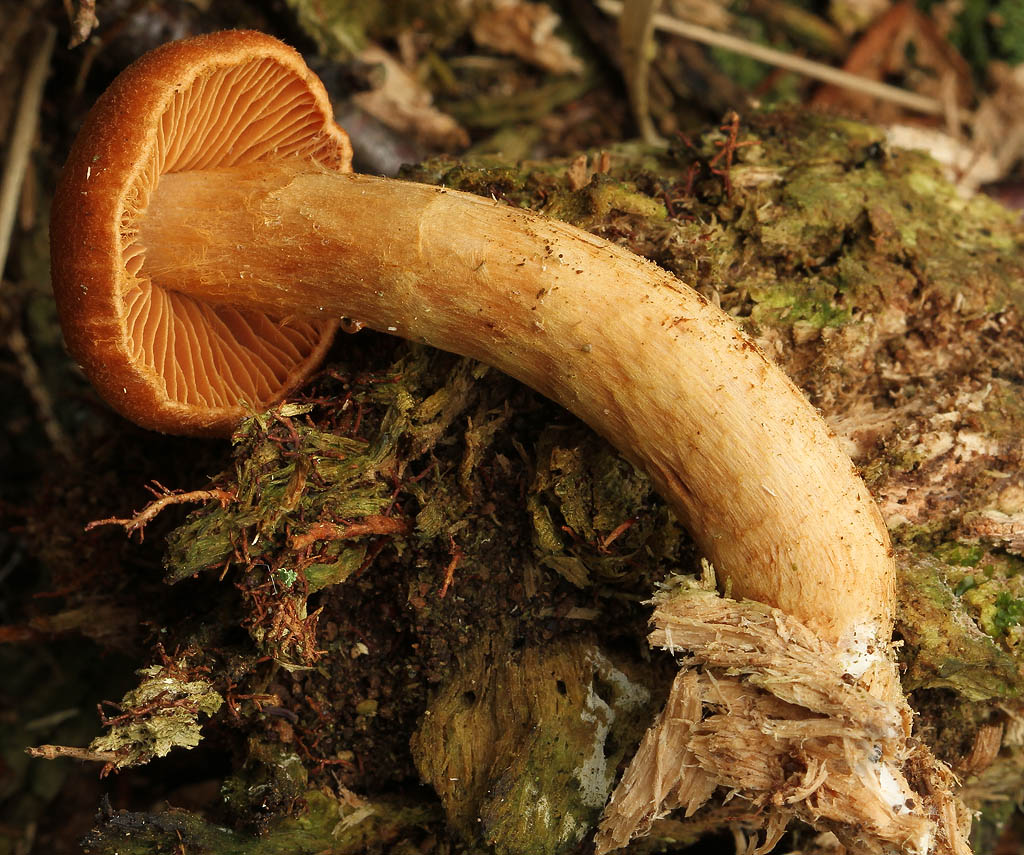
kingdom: Fungi
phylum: Basidiomycota
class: Agaricomycetes
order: Agaricales
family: Cortinariaceae
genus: Cortinarius
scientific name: Cortinarius rubellus
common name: puklet gift-slørhat
